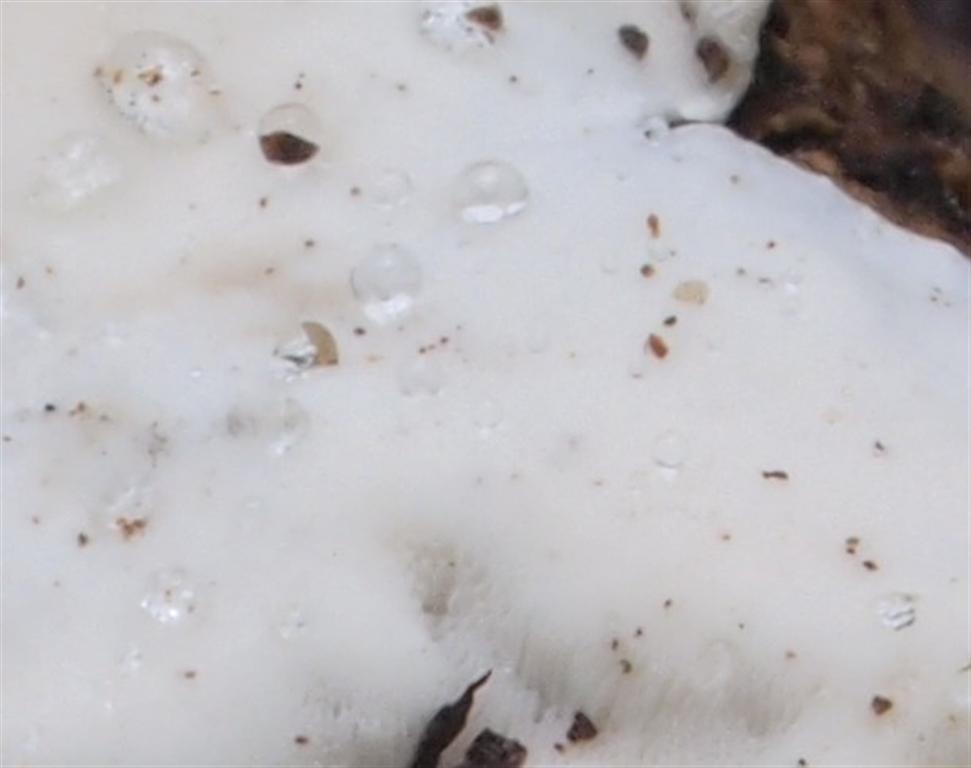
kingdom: Fungi
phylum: Basidiomycota
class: Agaricomycetes
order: Polyporales
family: Incrustoporiaceae
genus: Skeletocutis
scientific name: Skeletocutis nemoralis
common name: stor krystalporesvamp
